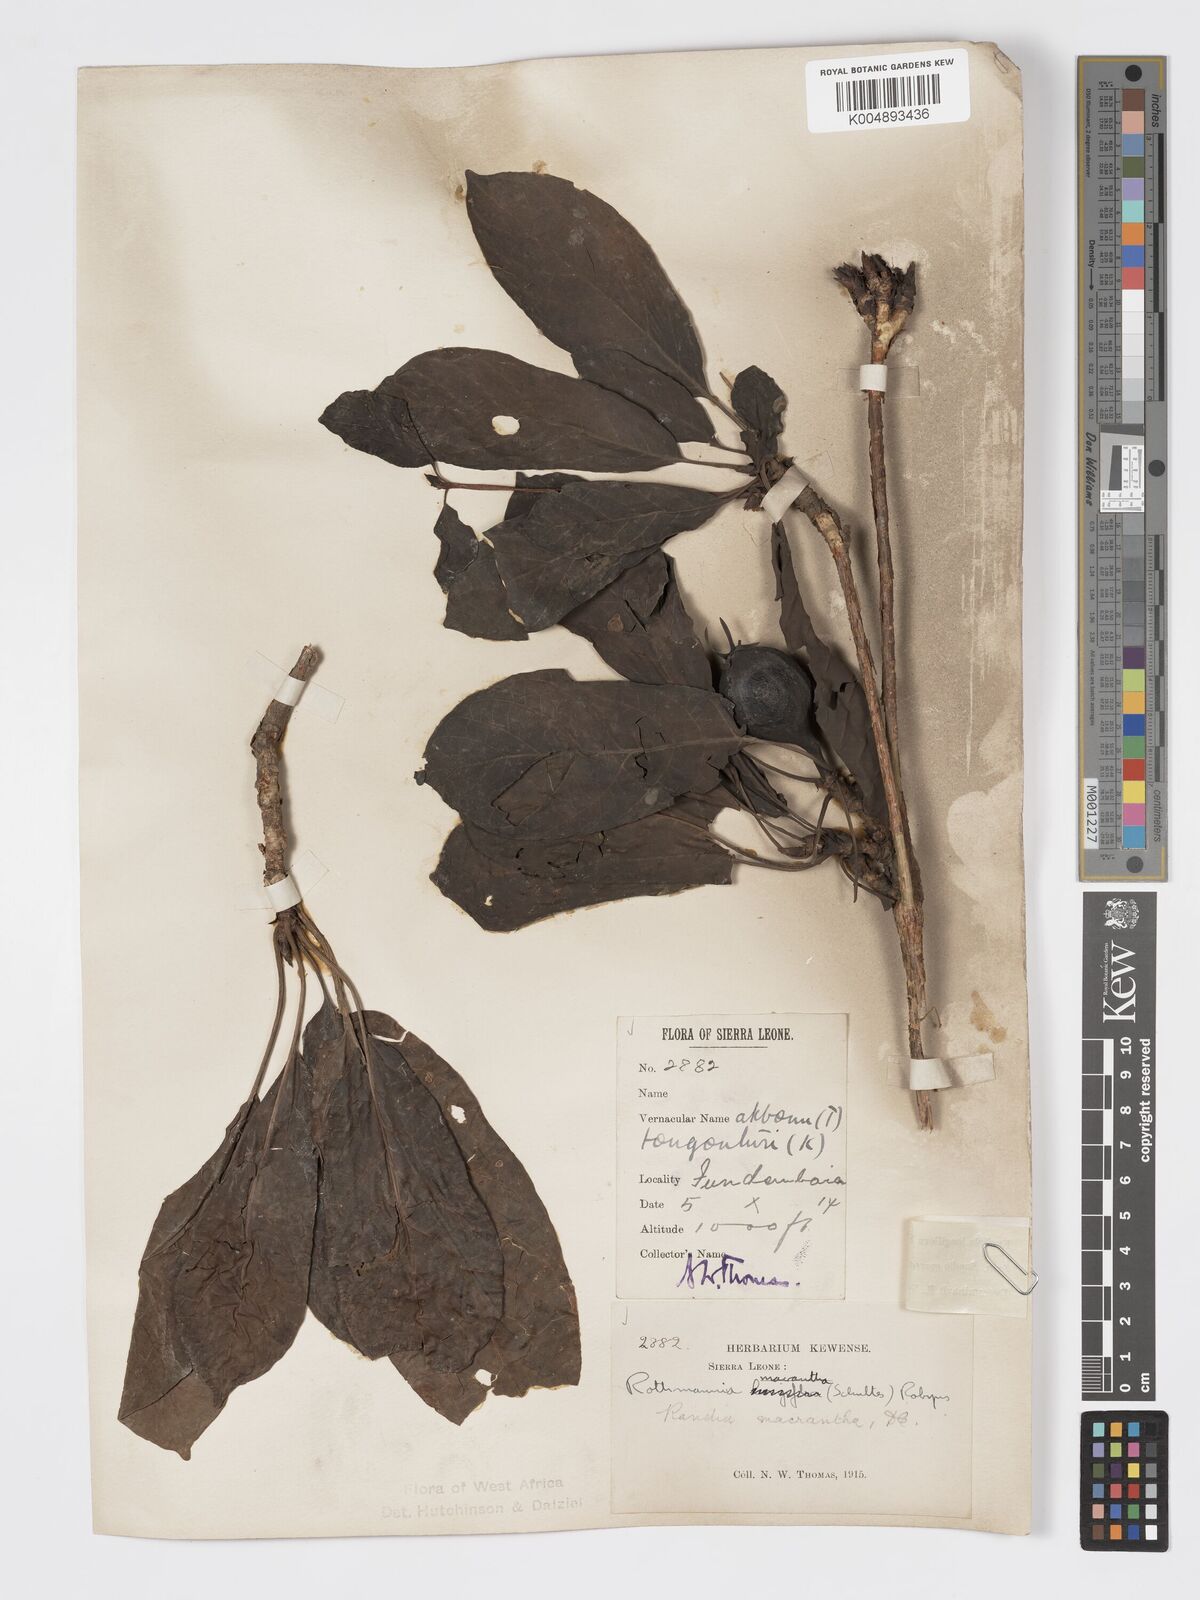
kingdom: Plantae
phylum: Tracheophyta
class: Magnoliopsida
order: Gentianales
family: Rubiaceae
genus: Euclinia
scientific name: Euclinia longiflora
